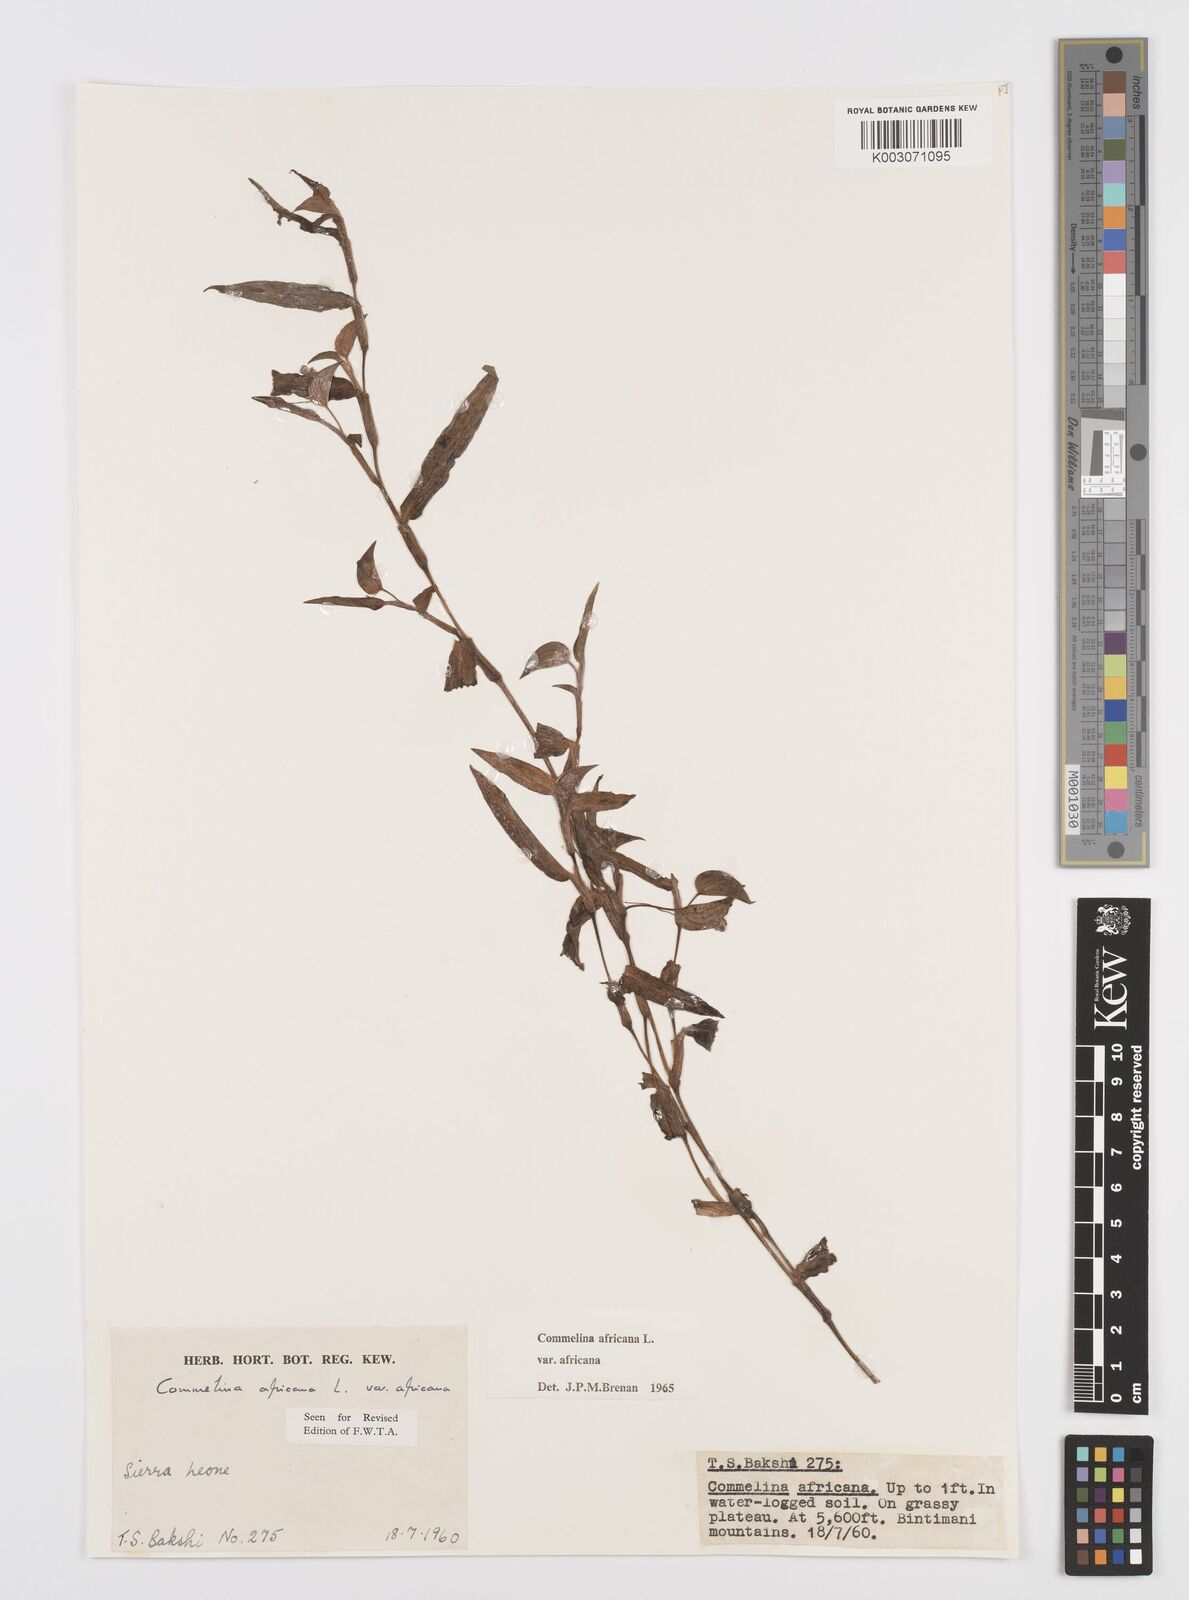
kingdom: Plantae
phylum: Tracheophyta
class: Liliopsida
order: Commelinales
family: Commelinaceae
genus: Commelina
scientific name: Commelina africana
